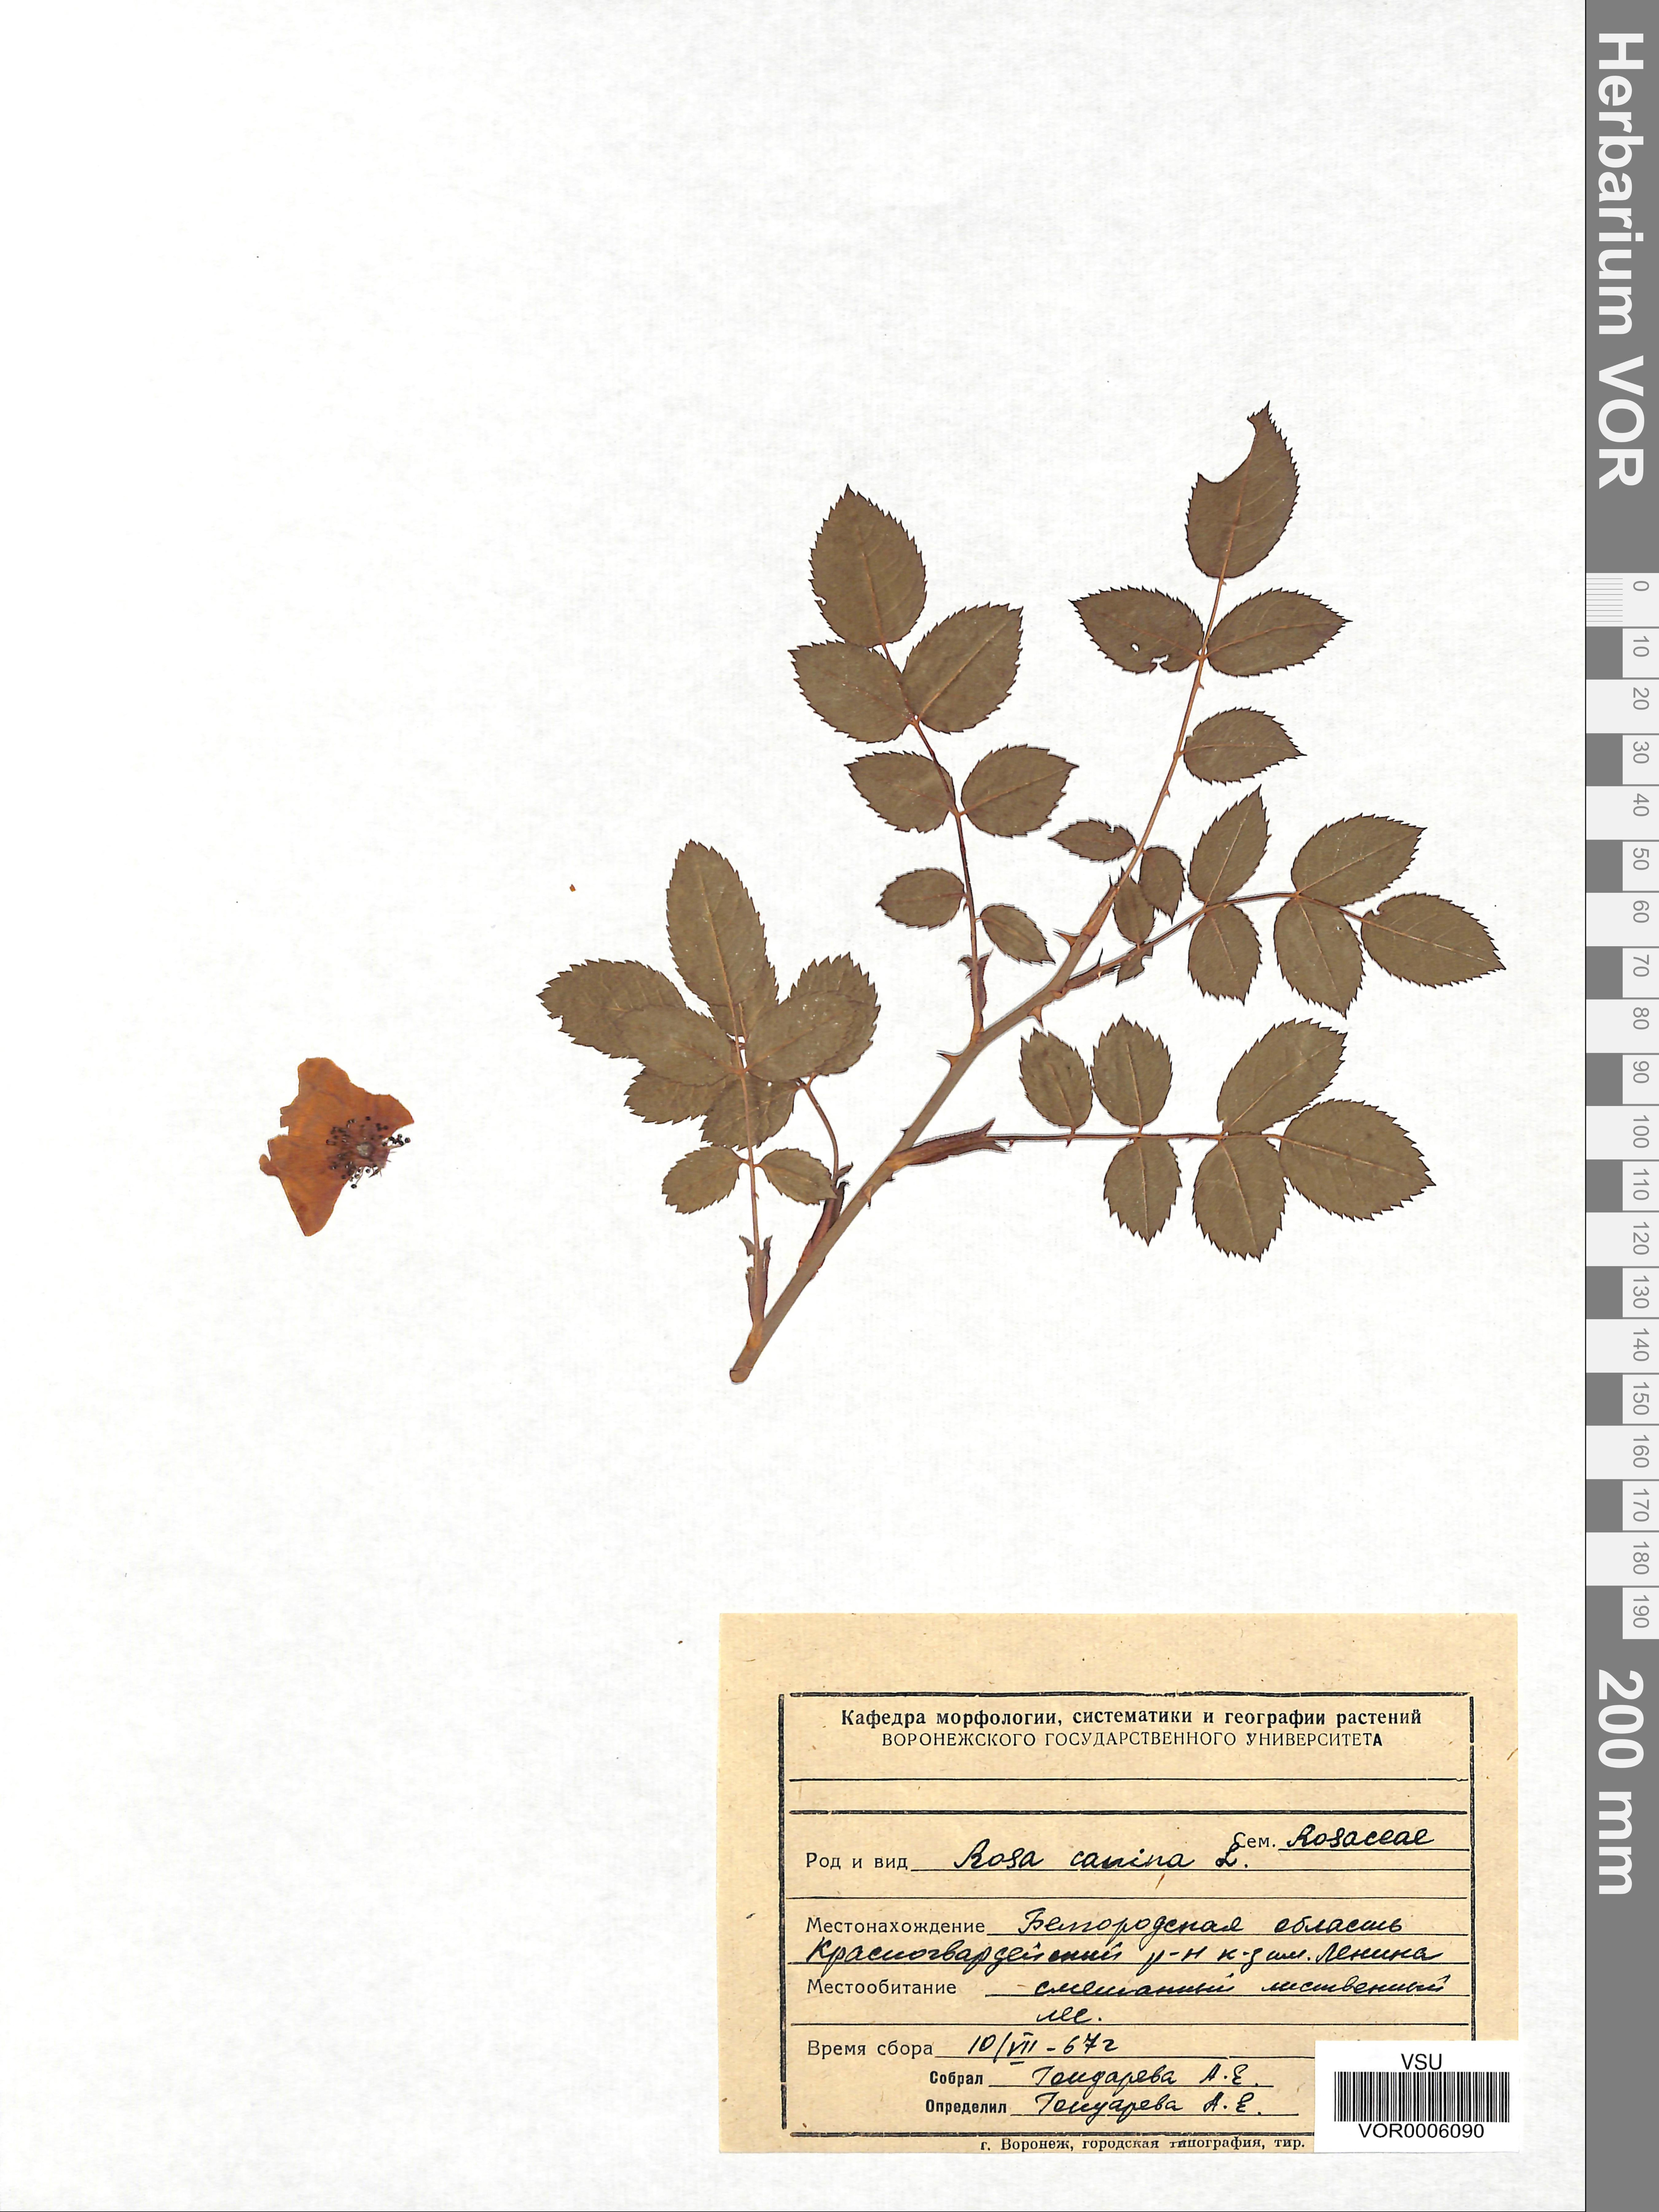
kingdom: Plantae
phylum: Tracheophyta
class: Magnoliopsida
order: Rosales
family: Rosaceae
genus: Rosa
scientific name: Rosa canina
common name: Dog rose
